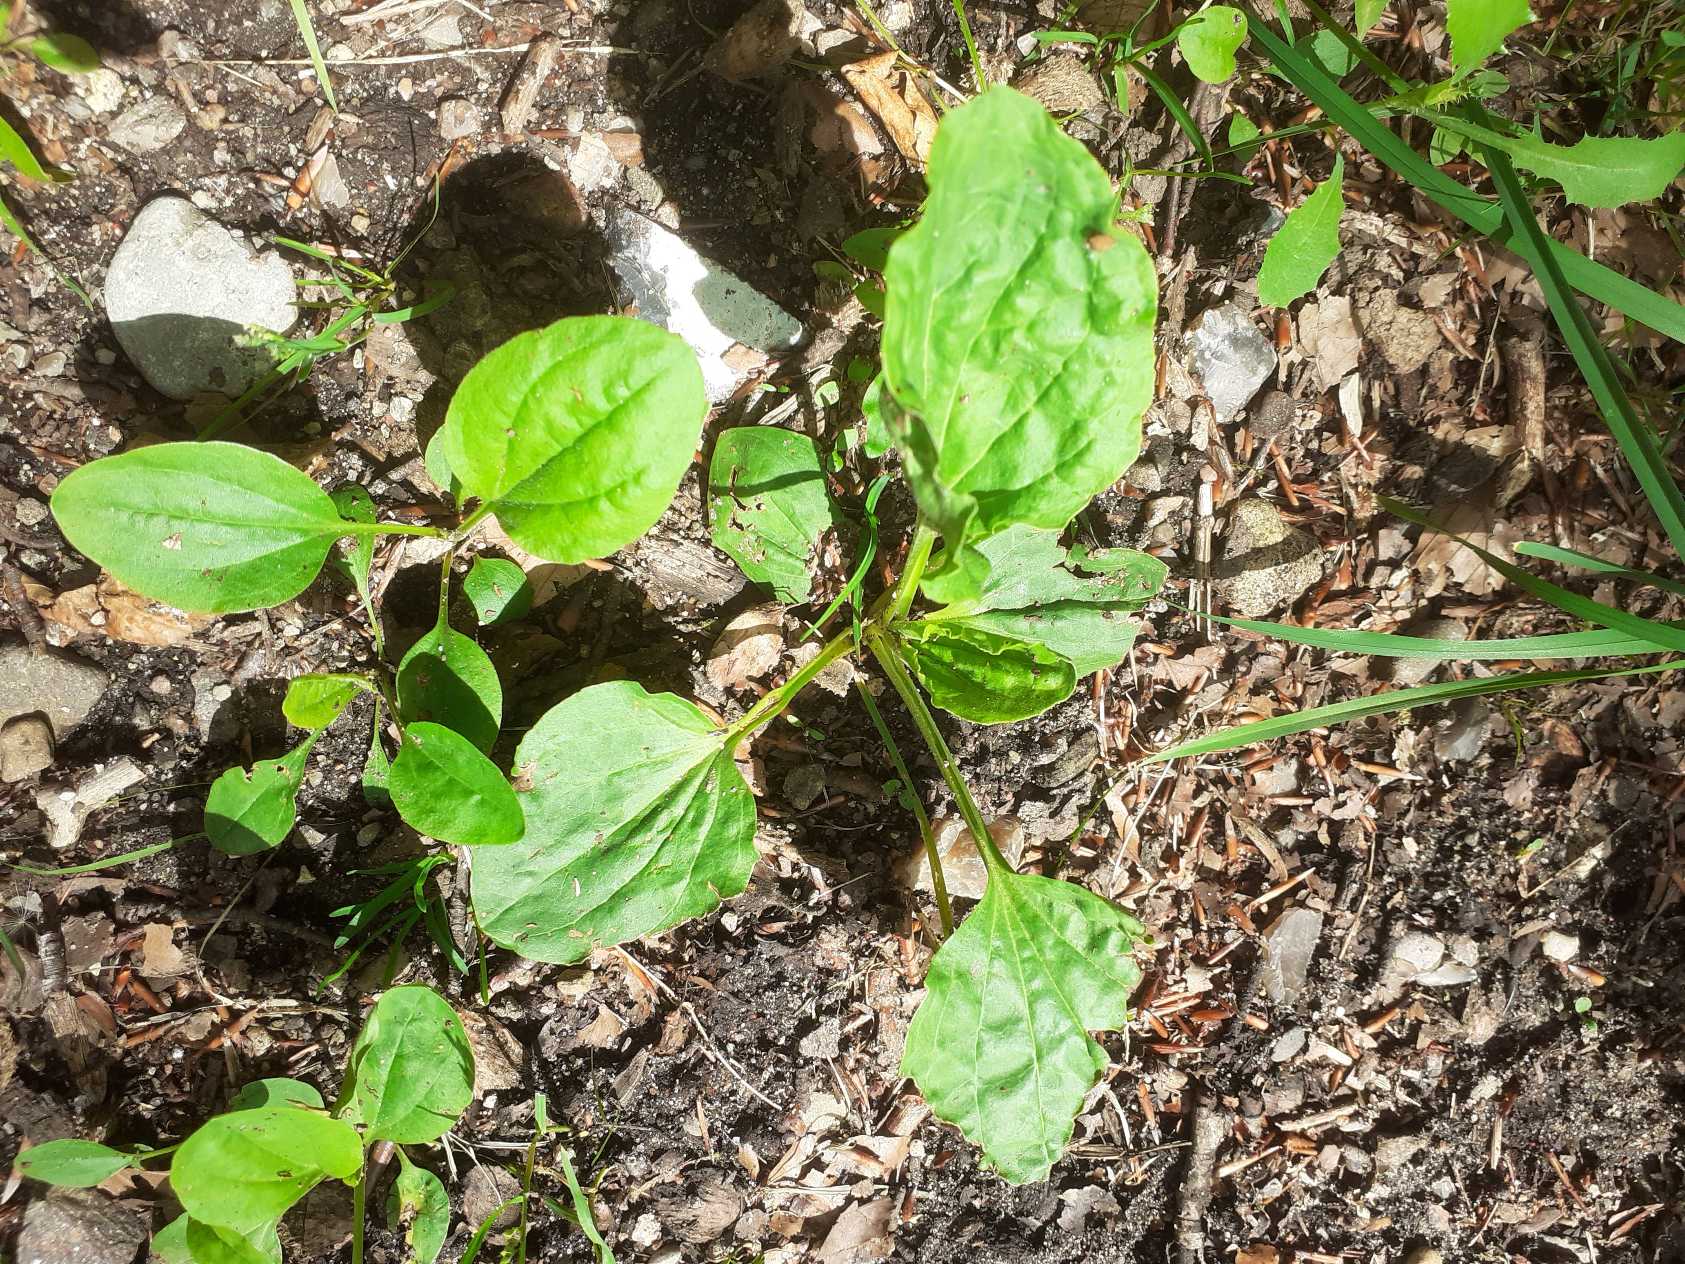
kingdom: Plantae
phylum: Tracheophyta
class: Magnoliopsida
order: Lamiales
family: Plantaginaceae
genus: Plantago
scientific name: Plantago major
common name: Glat vejbred
